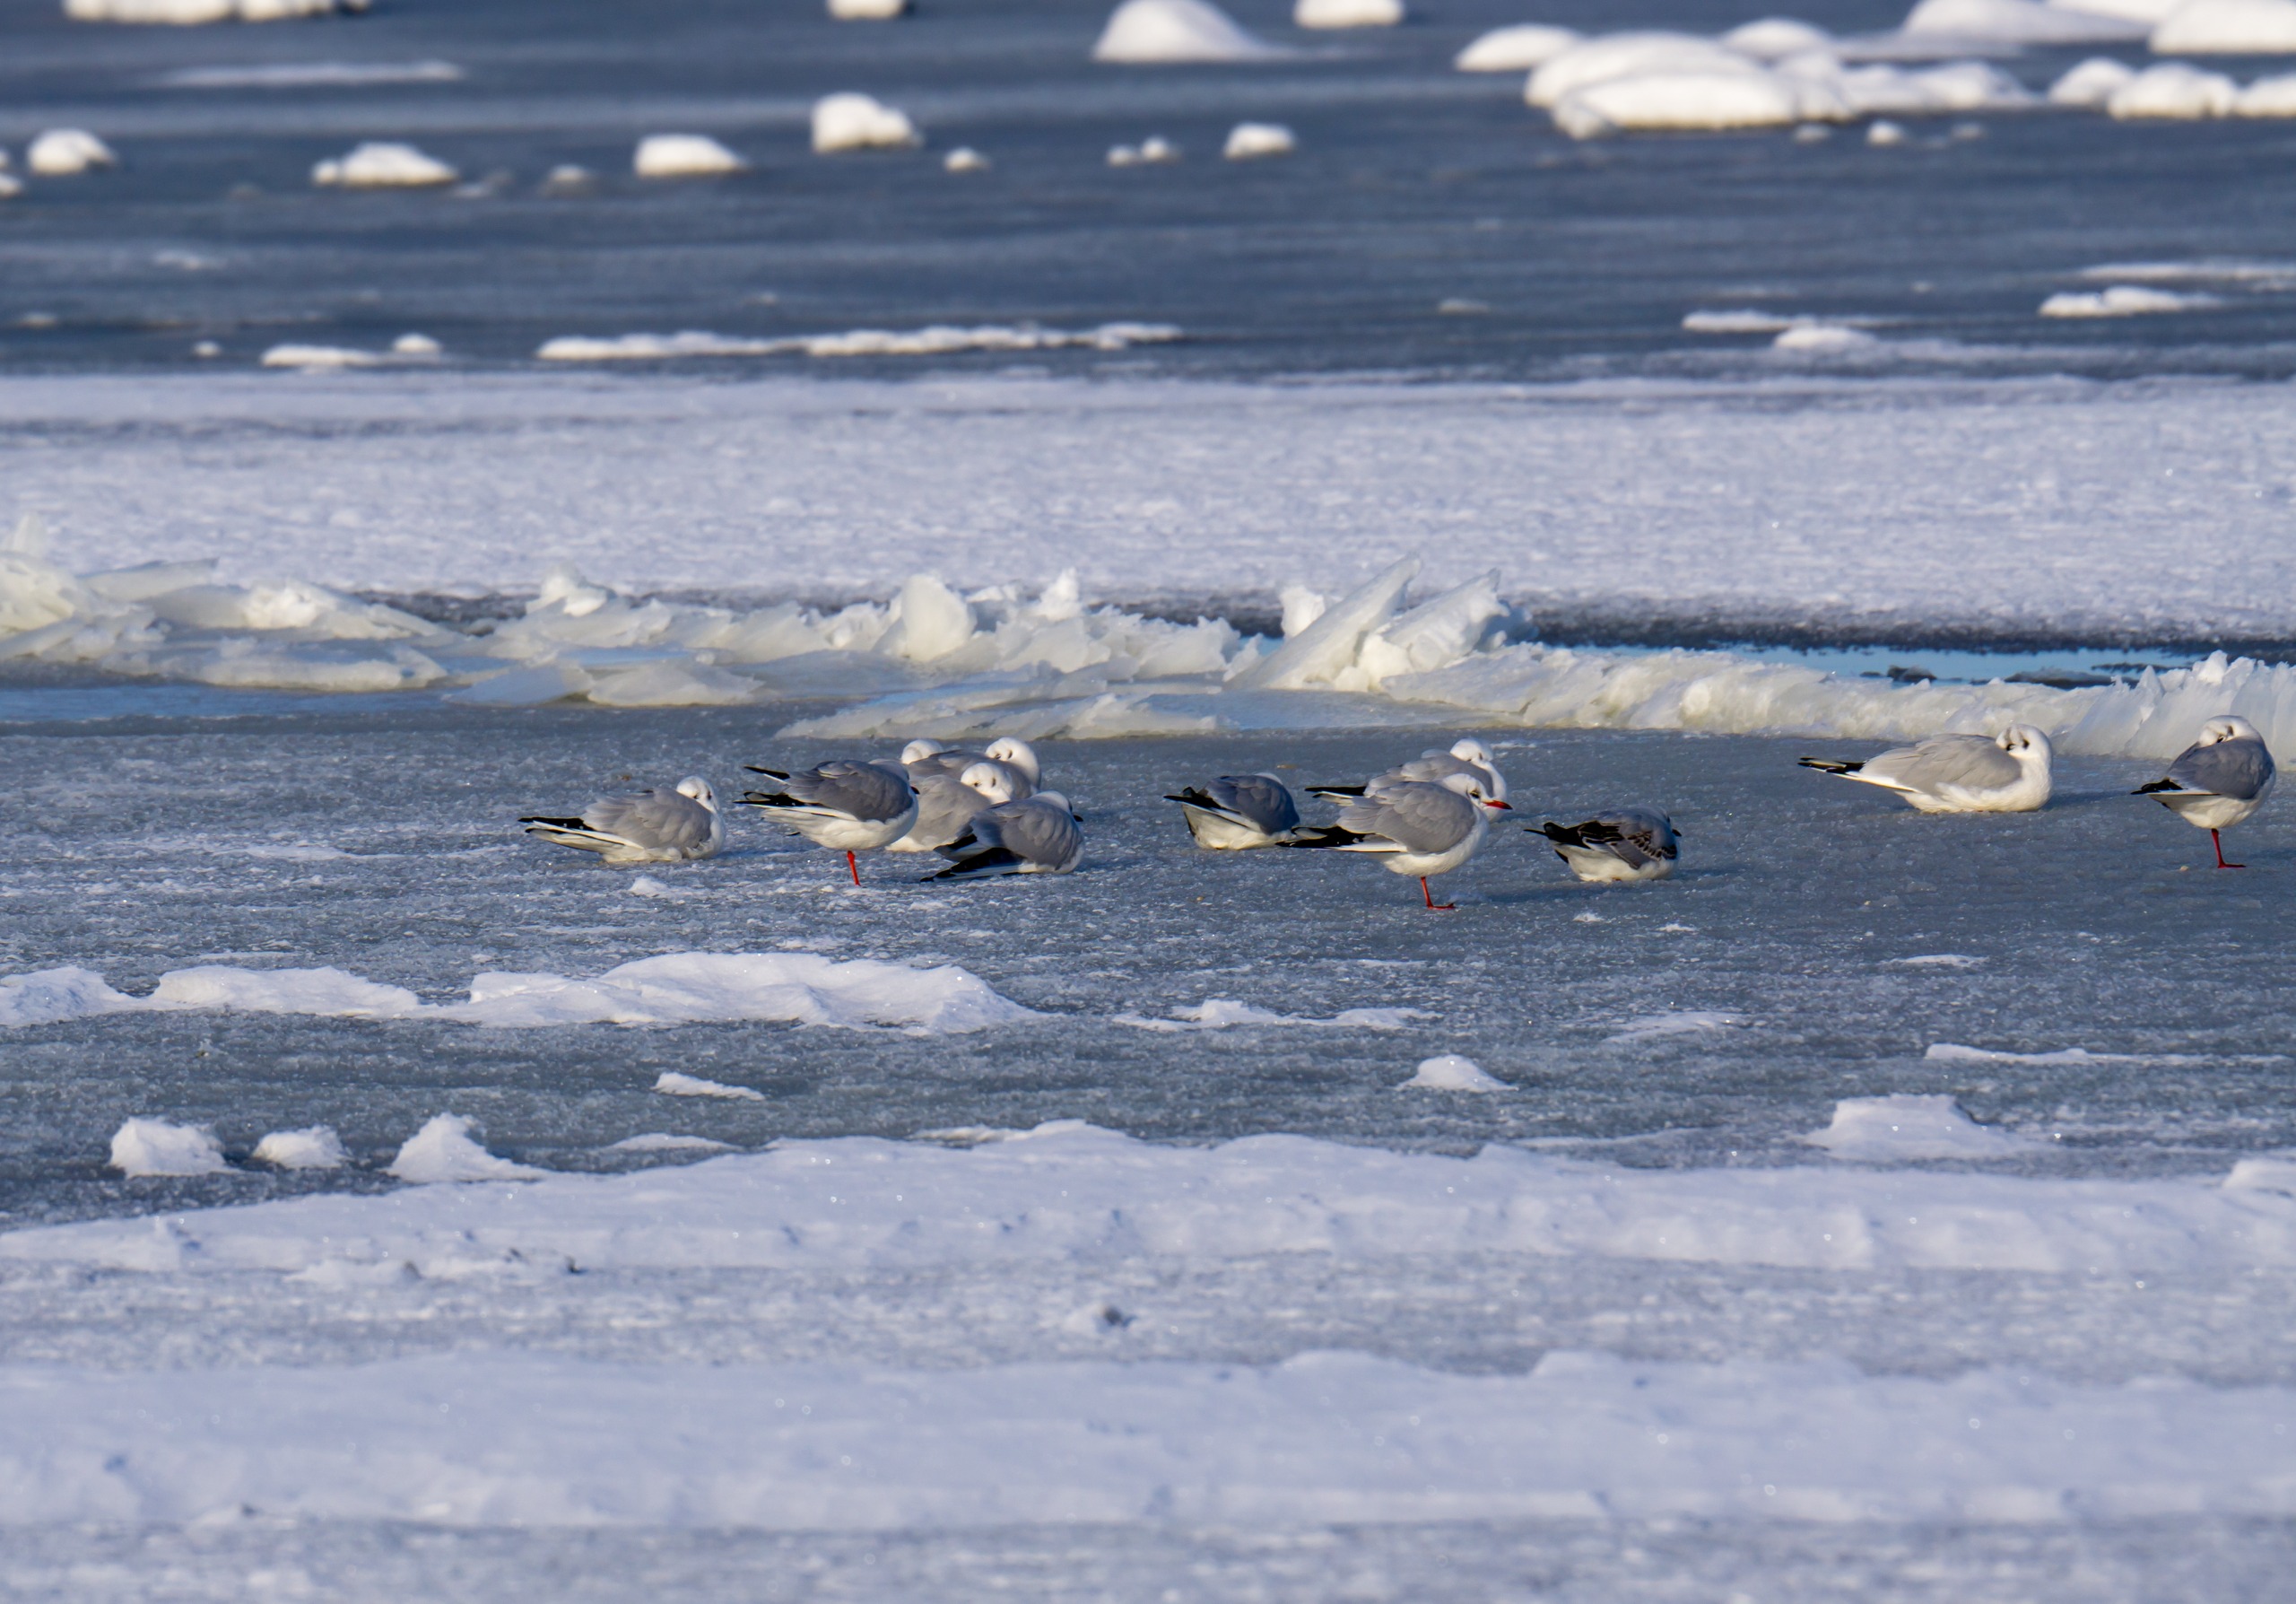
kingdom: Animalia
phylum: Chordata
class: Aves
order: Charadriiformes
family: Laridae
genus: Chroicocephalus
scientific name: Chroicocephalus ridibundus
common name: Hættemåge
